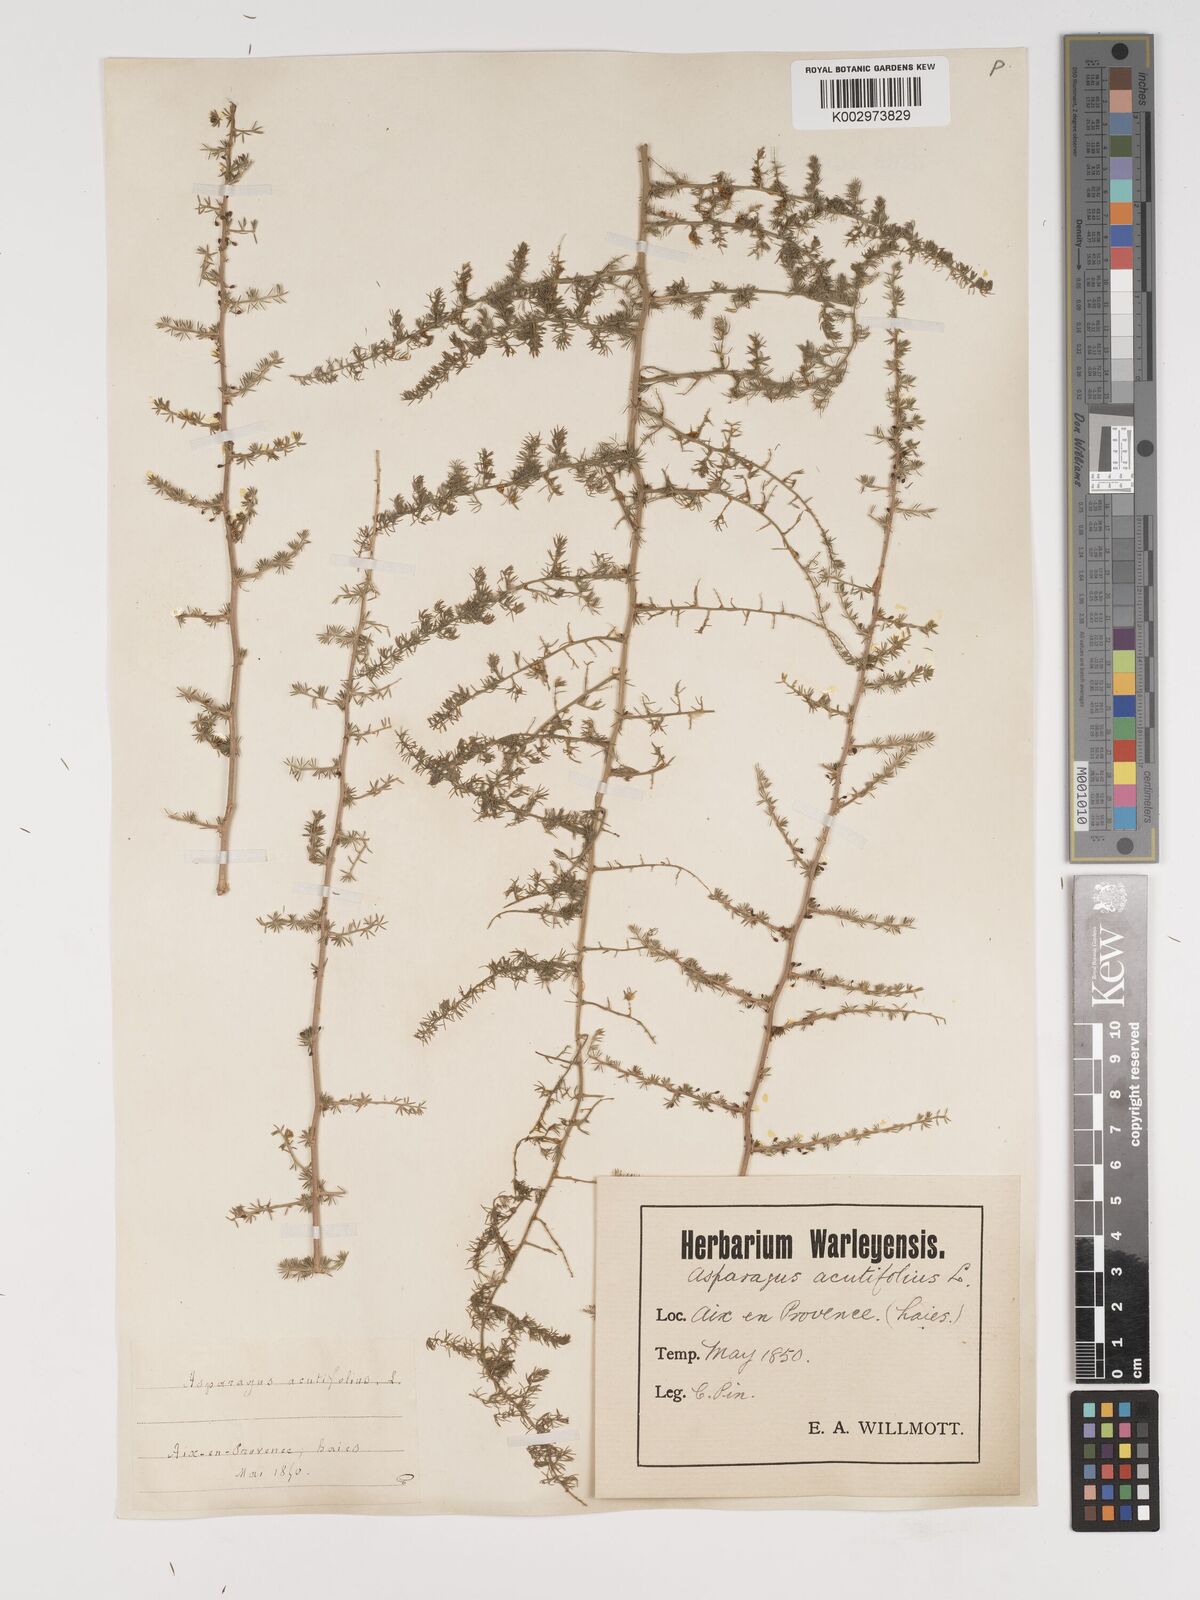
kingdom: Plantae
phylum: Tracheophyta
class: Liliopsida
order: Asparagales
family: Asparagaceae
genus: Asparagus
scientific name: Asparagus aethiopicus
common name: Sprenger's asparagus fern
